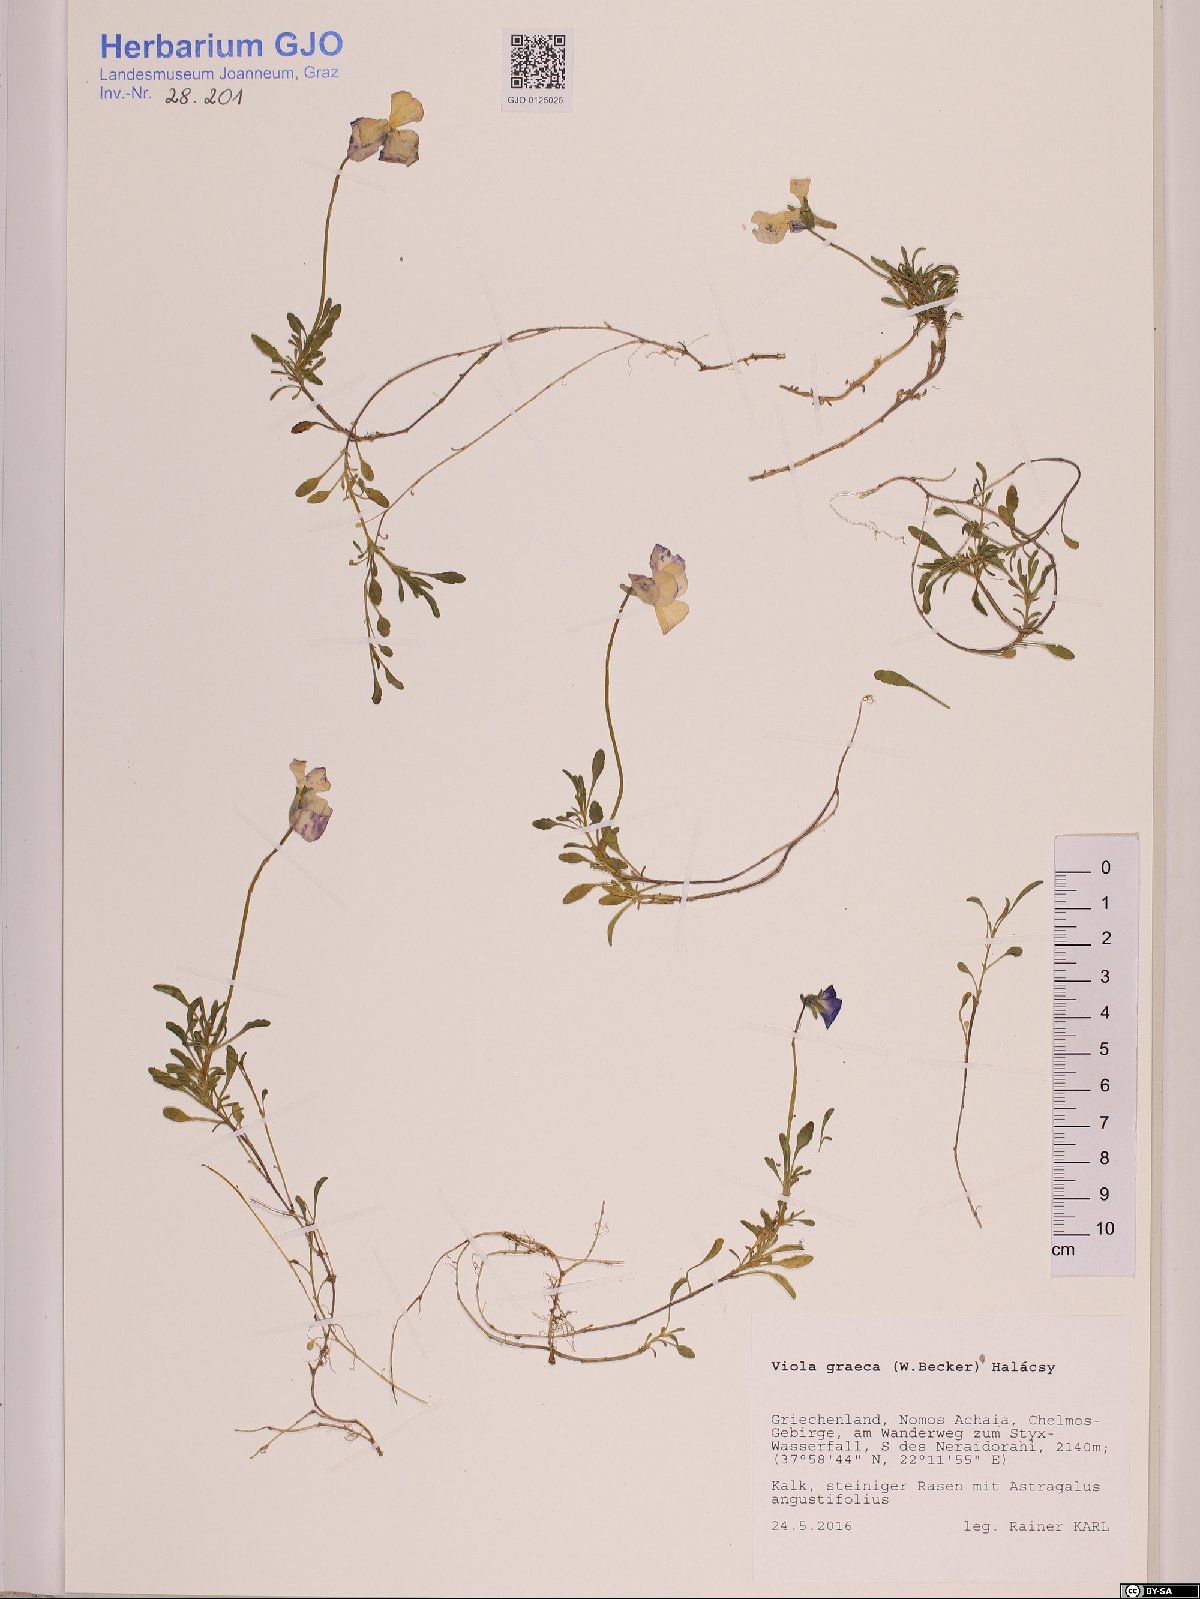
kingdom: Plantae
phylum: Tracheophyta
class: Magnoliopsida
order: Malpighiales
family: Violaceae
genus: Viola
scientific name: Viola graeca
